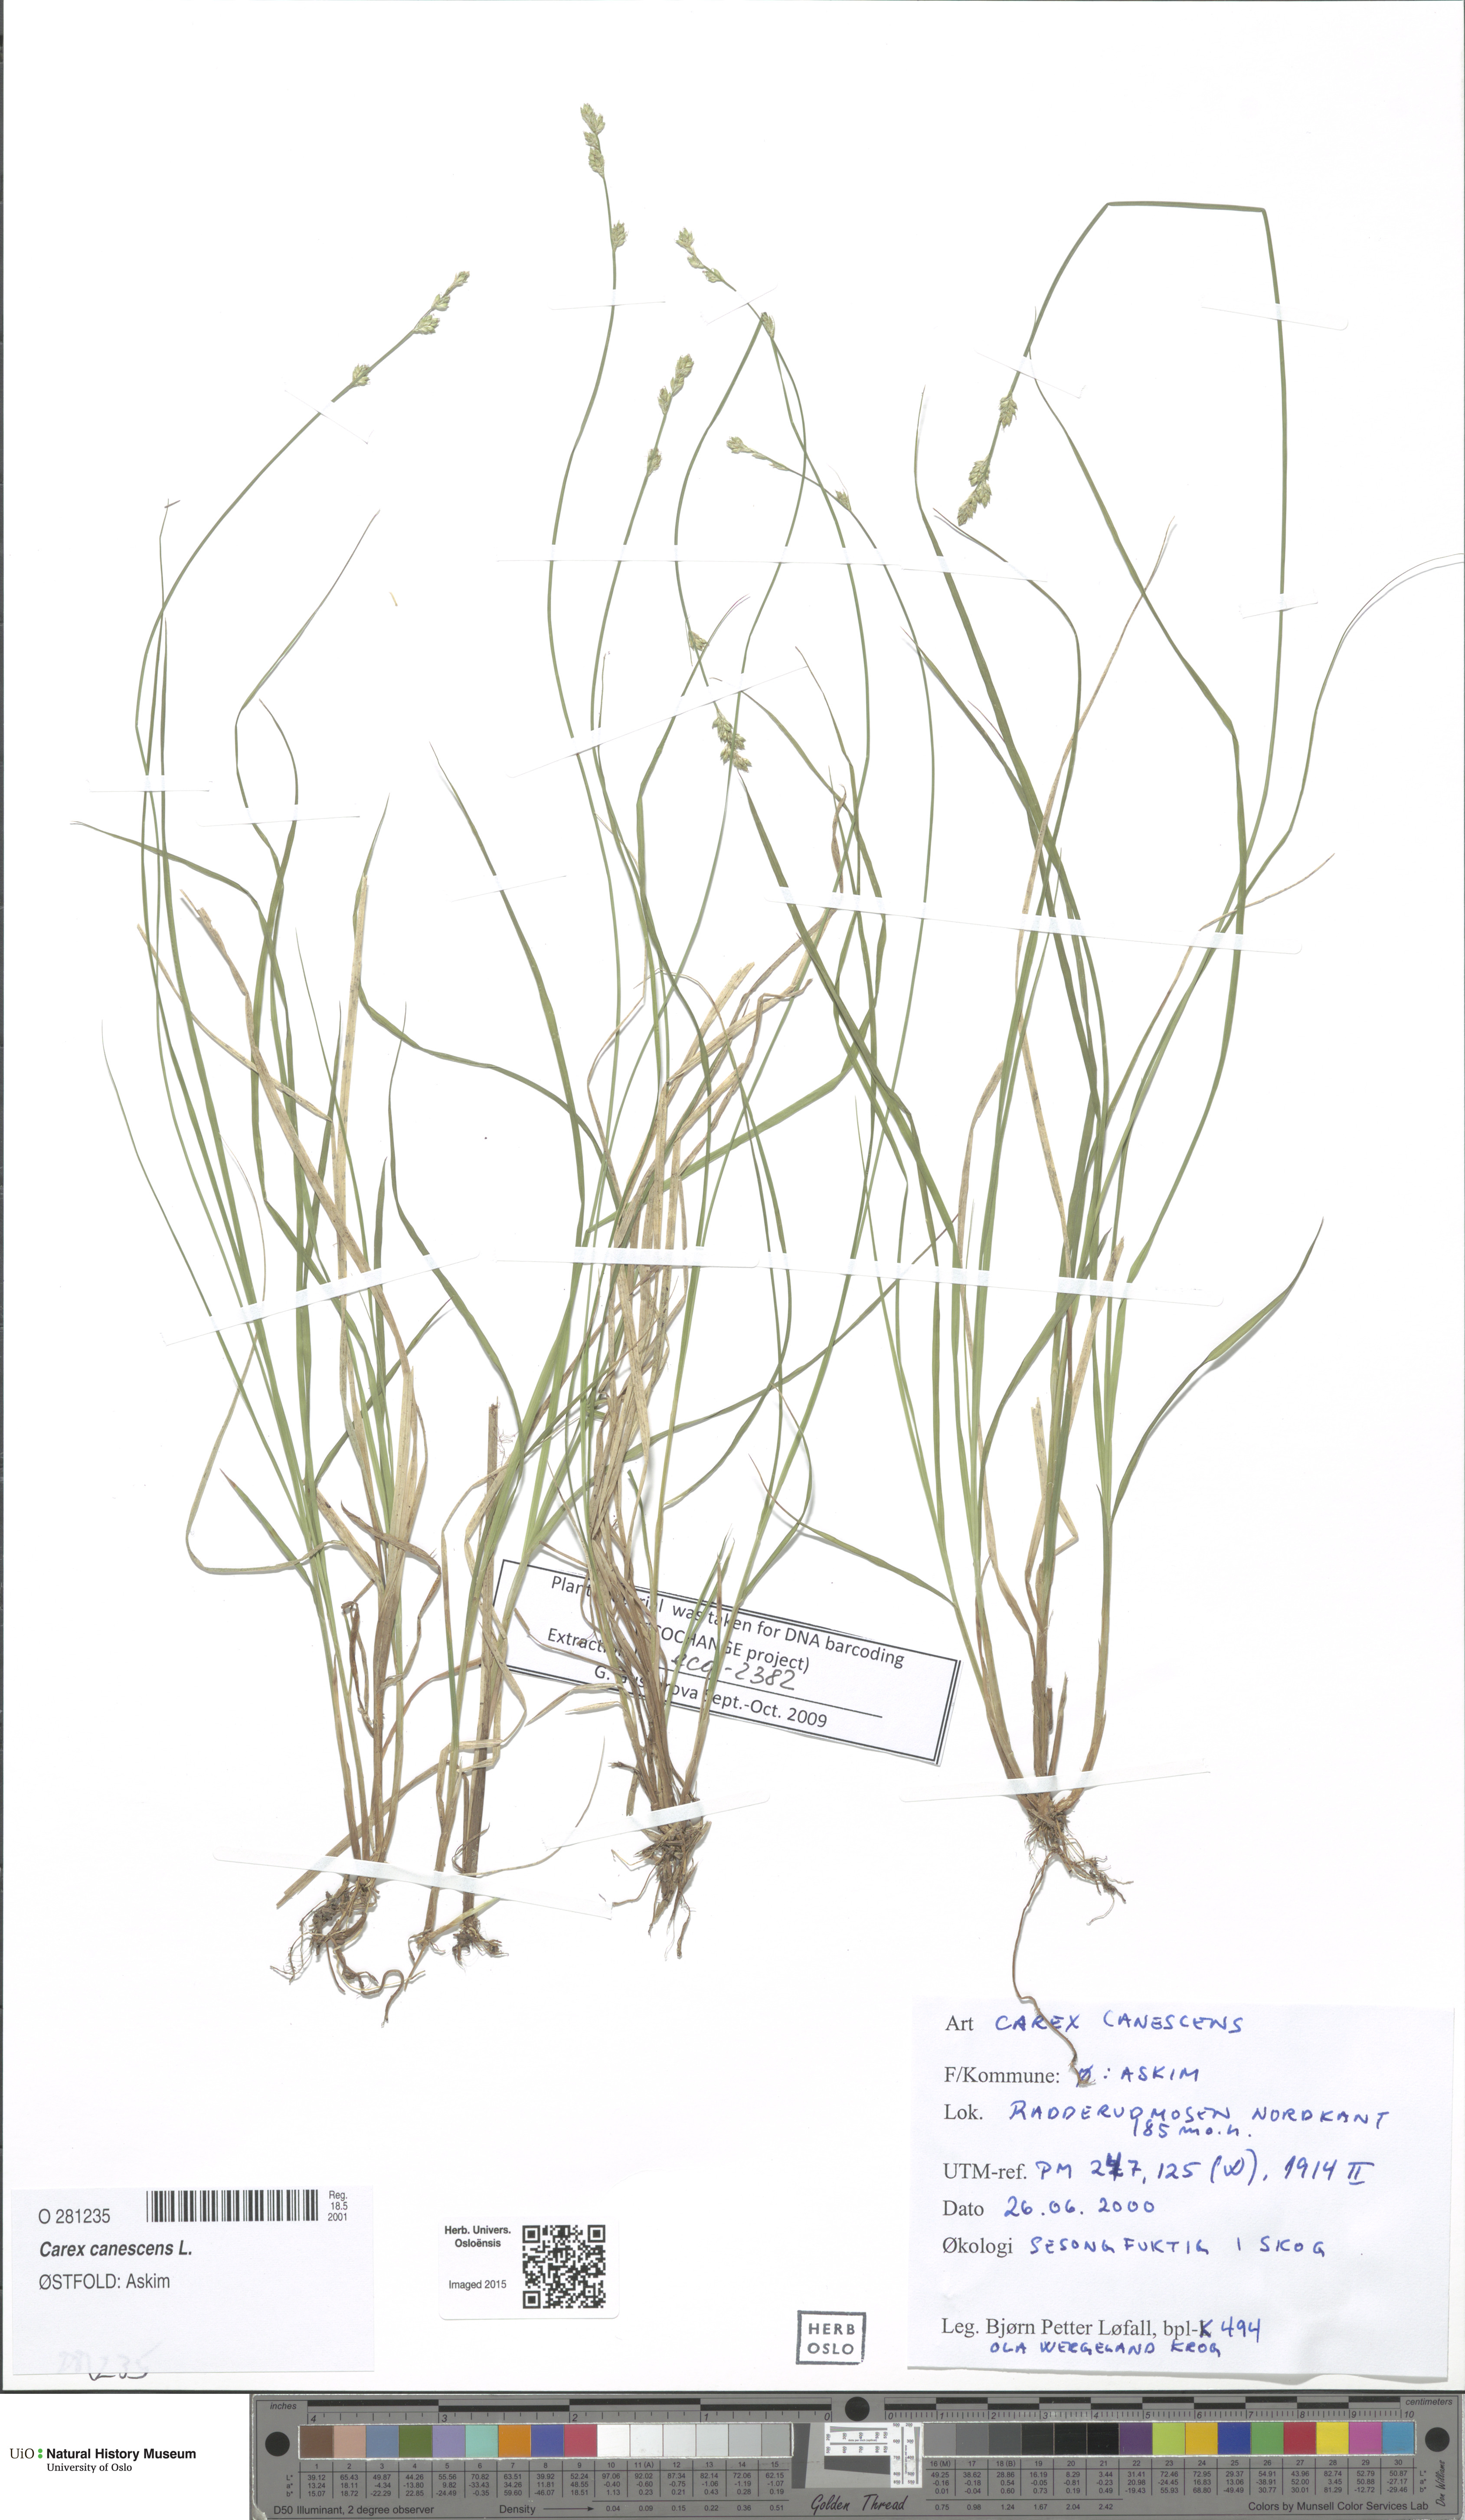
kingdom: Plantae
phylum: Tracheophyta
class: Liliopsida
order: Poales
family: Cyperaceae
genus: Carex
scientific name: Carex canescens
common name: White sedge
